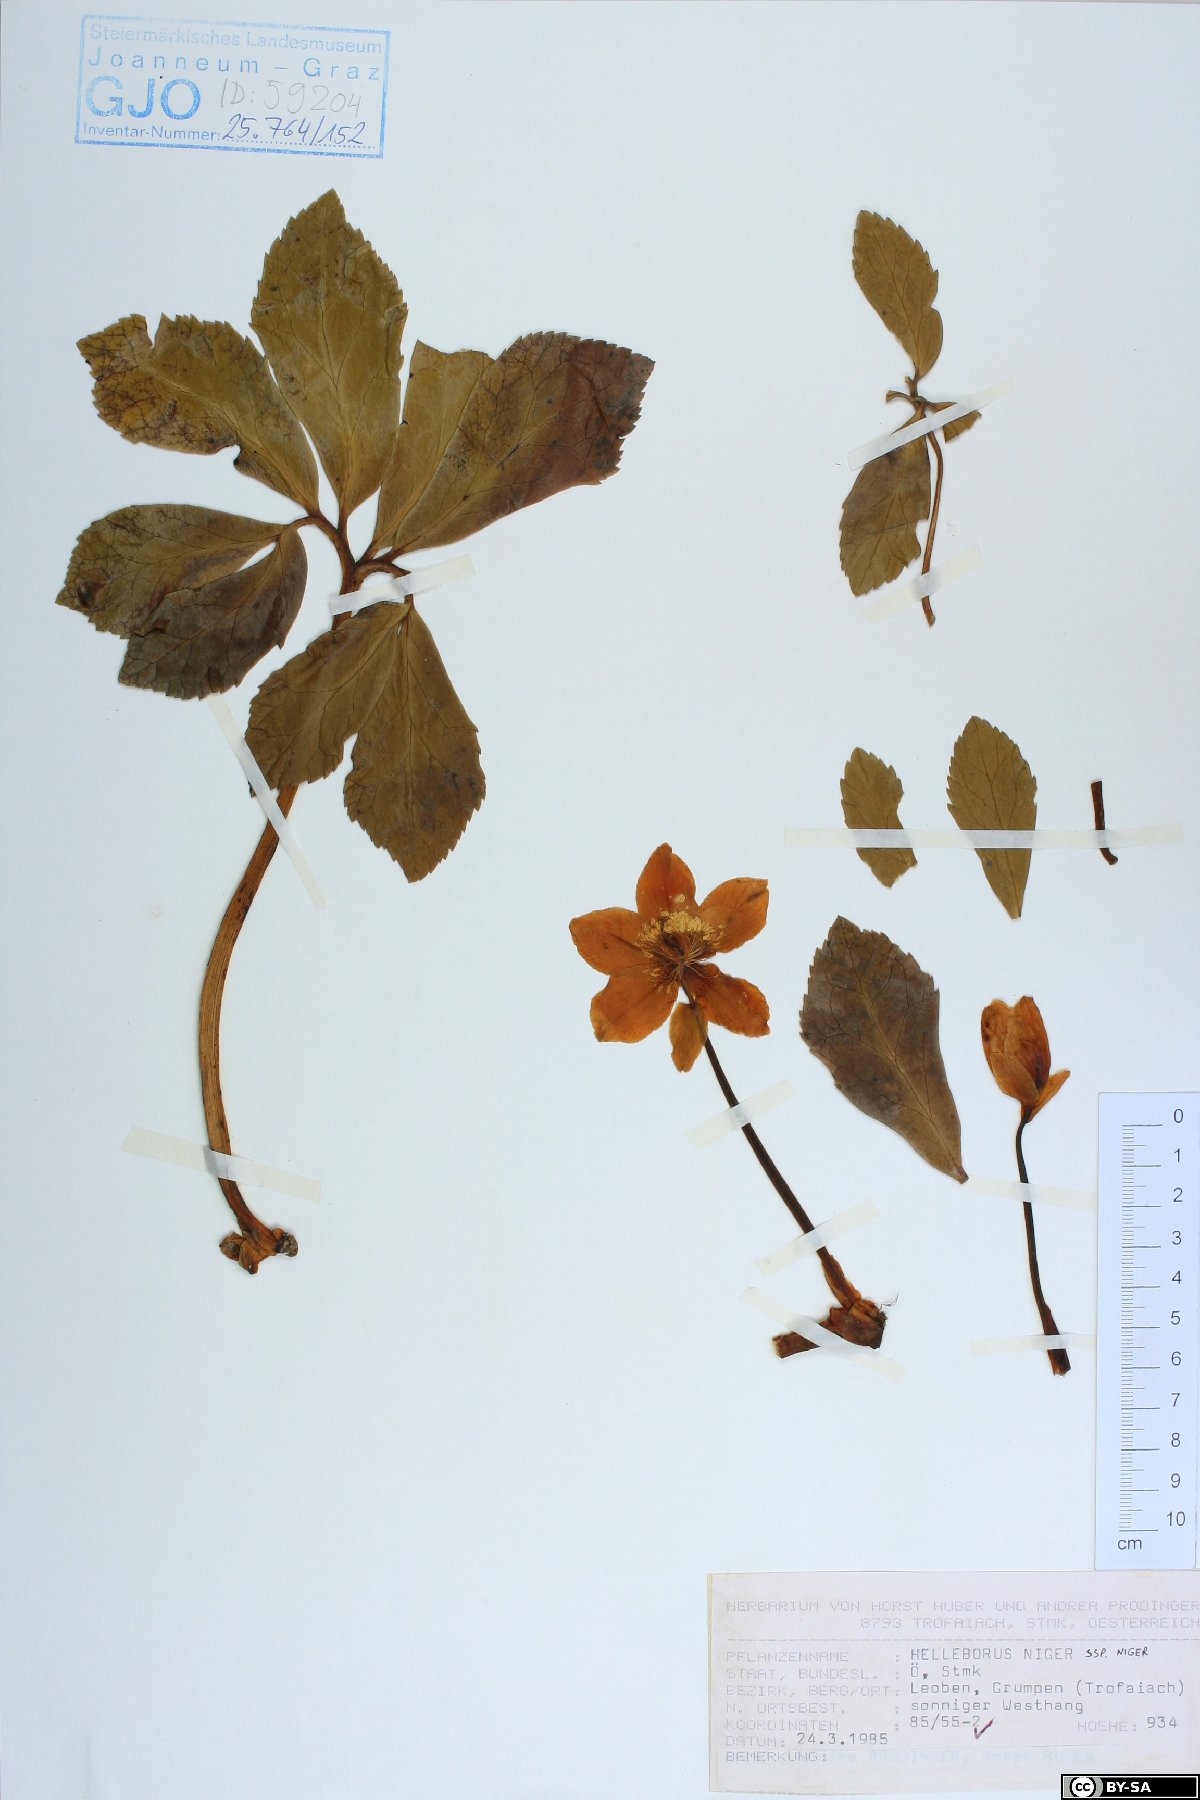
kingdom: Plantae
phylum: Tracheophyta
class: Magnoliopsida
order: Ranunculales
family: Ranunculaceae
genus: Helleborus
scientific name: Helleborus niger
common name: Black hellebore
